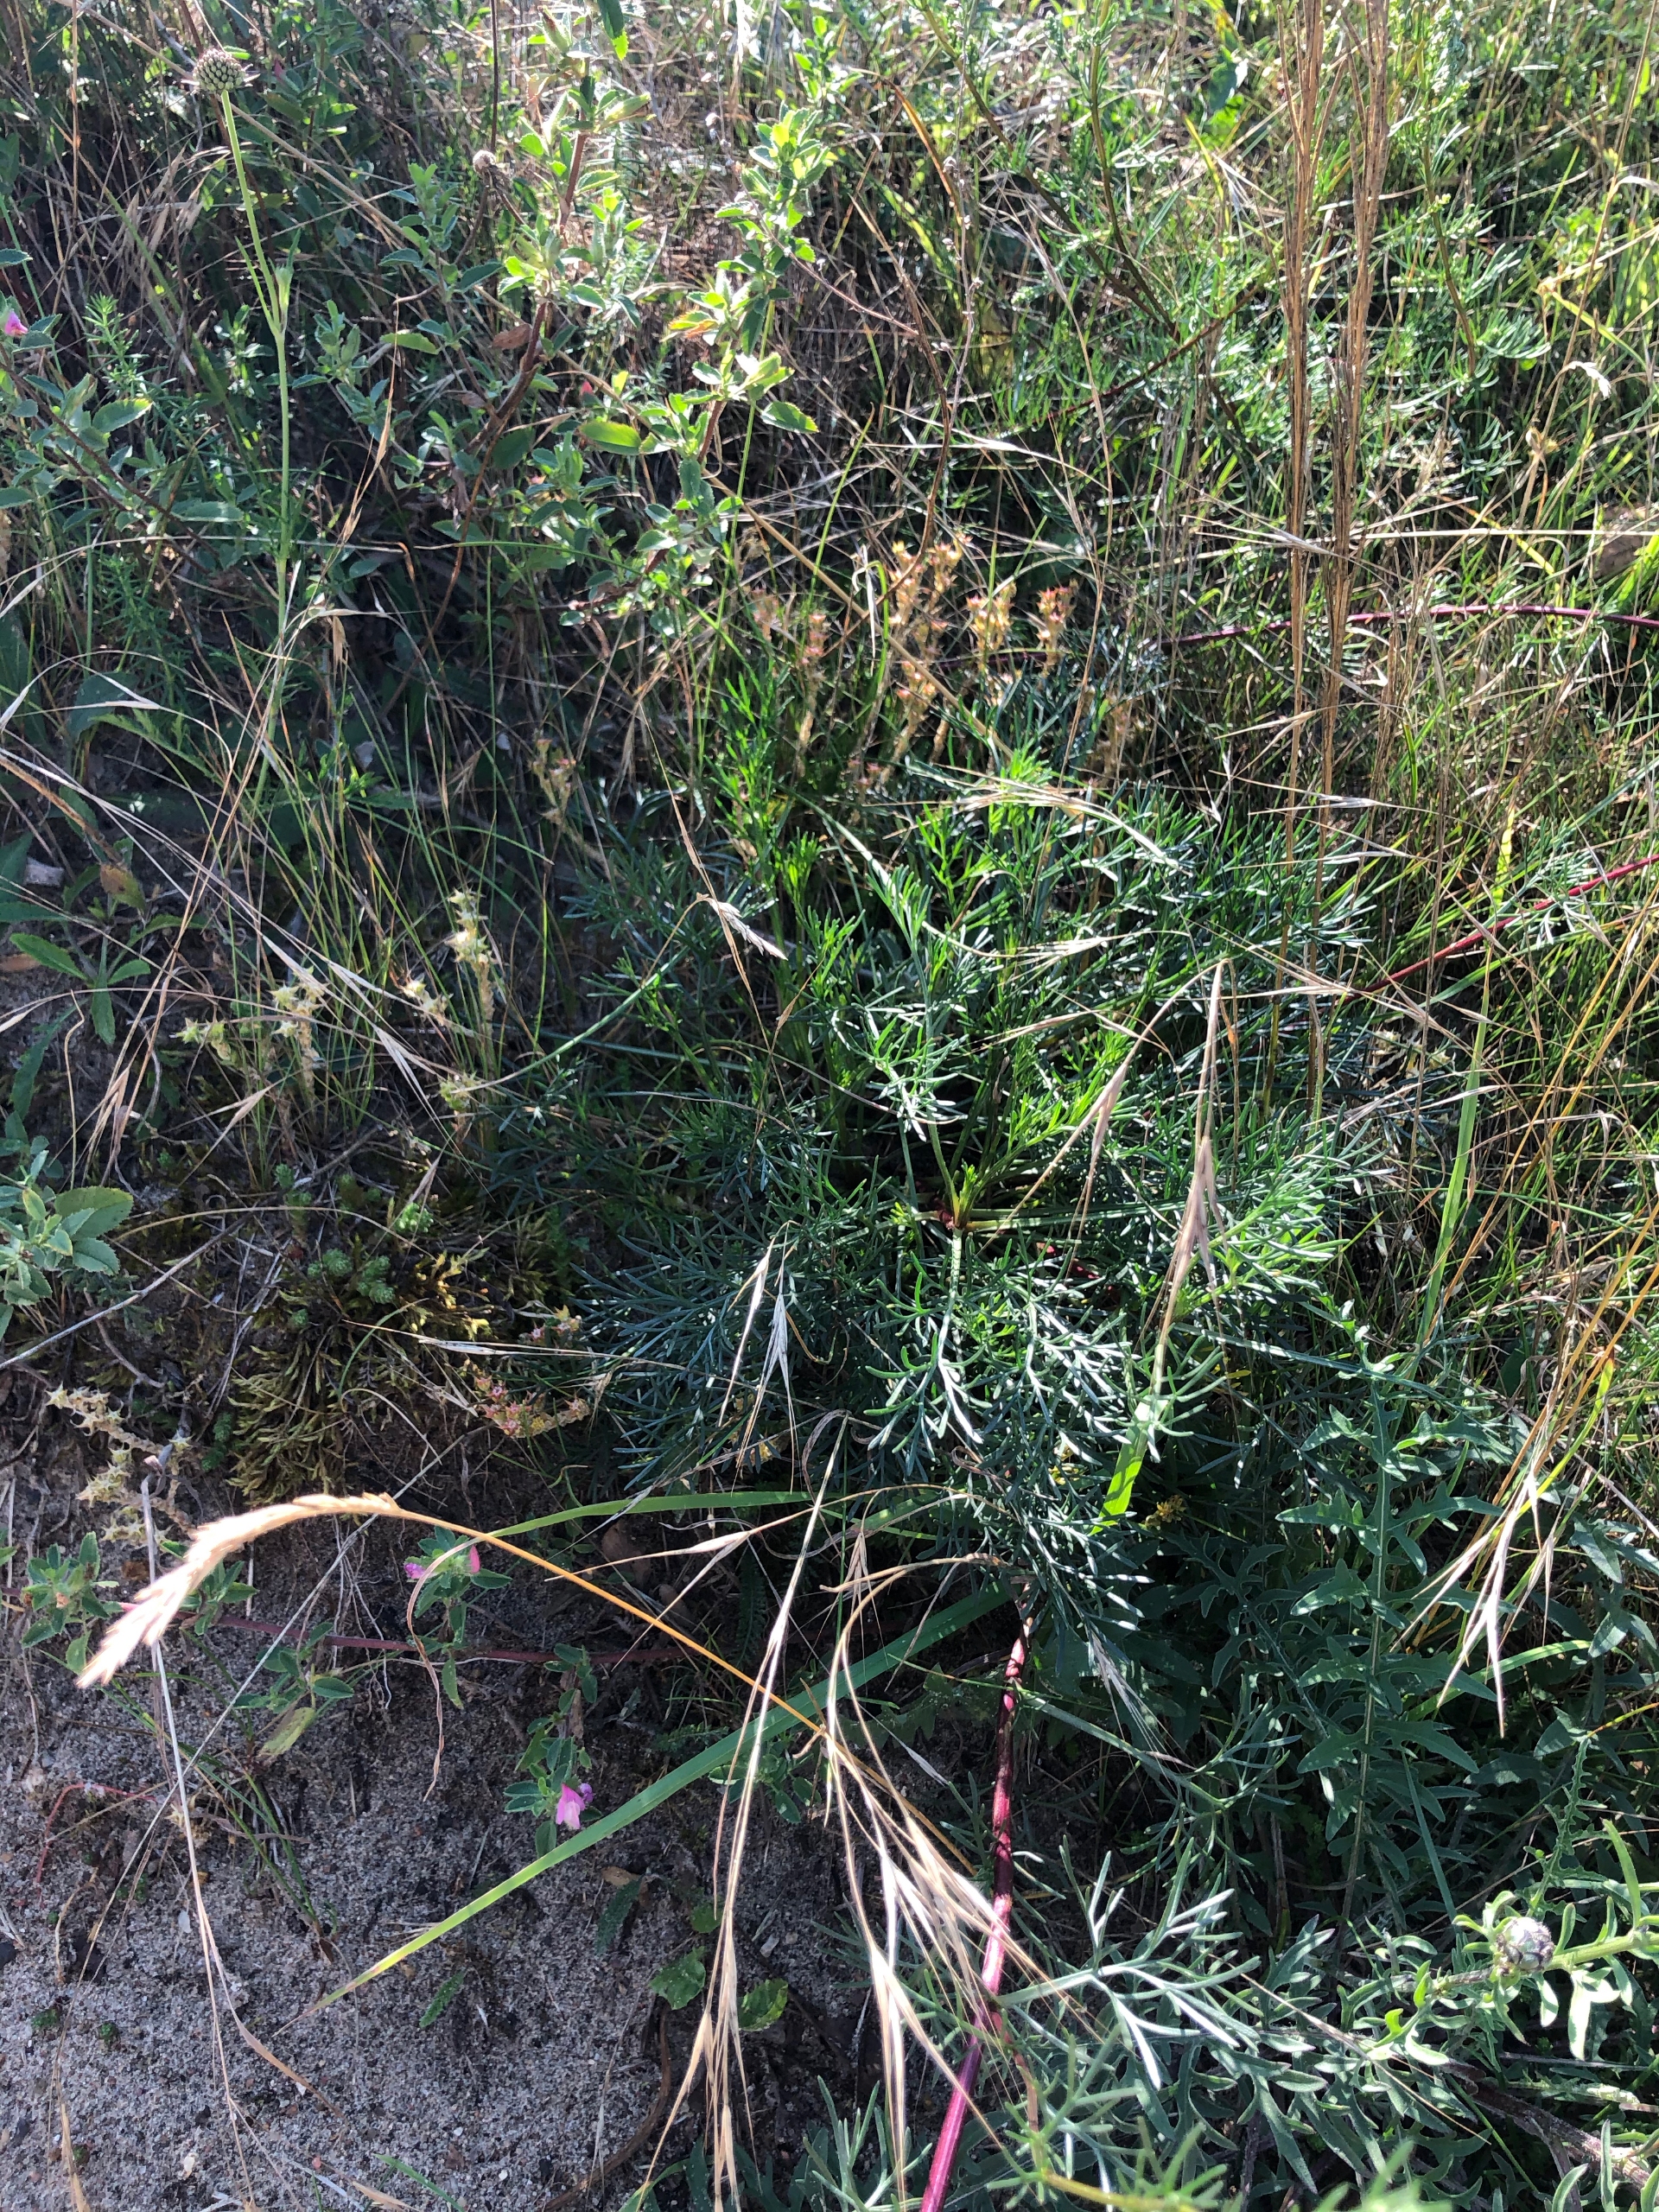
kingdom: Plantae
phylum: Tracheophyta
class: Magnoliopsida
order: Asterales
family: Asteraceae
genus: Artemisia
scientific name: Artemisia campestris
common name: Mark-bynke
